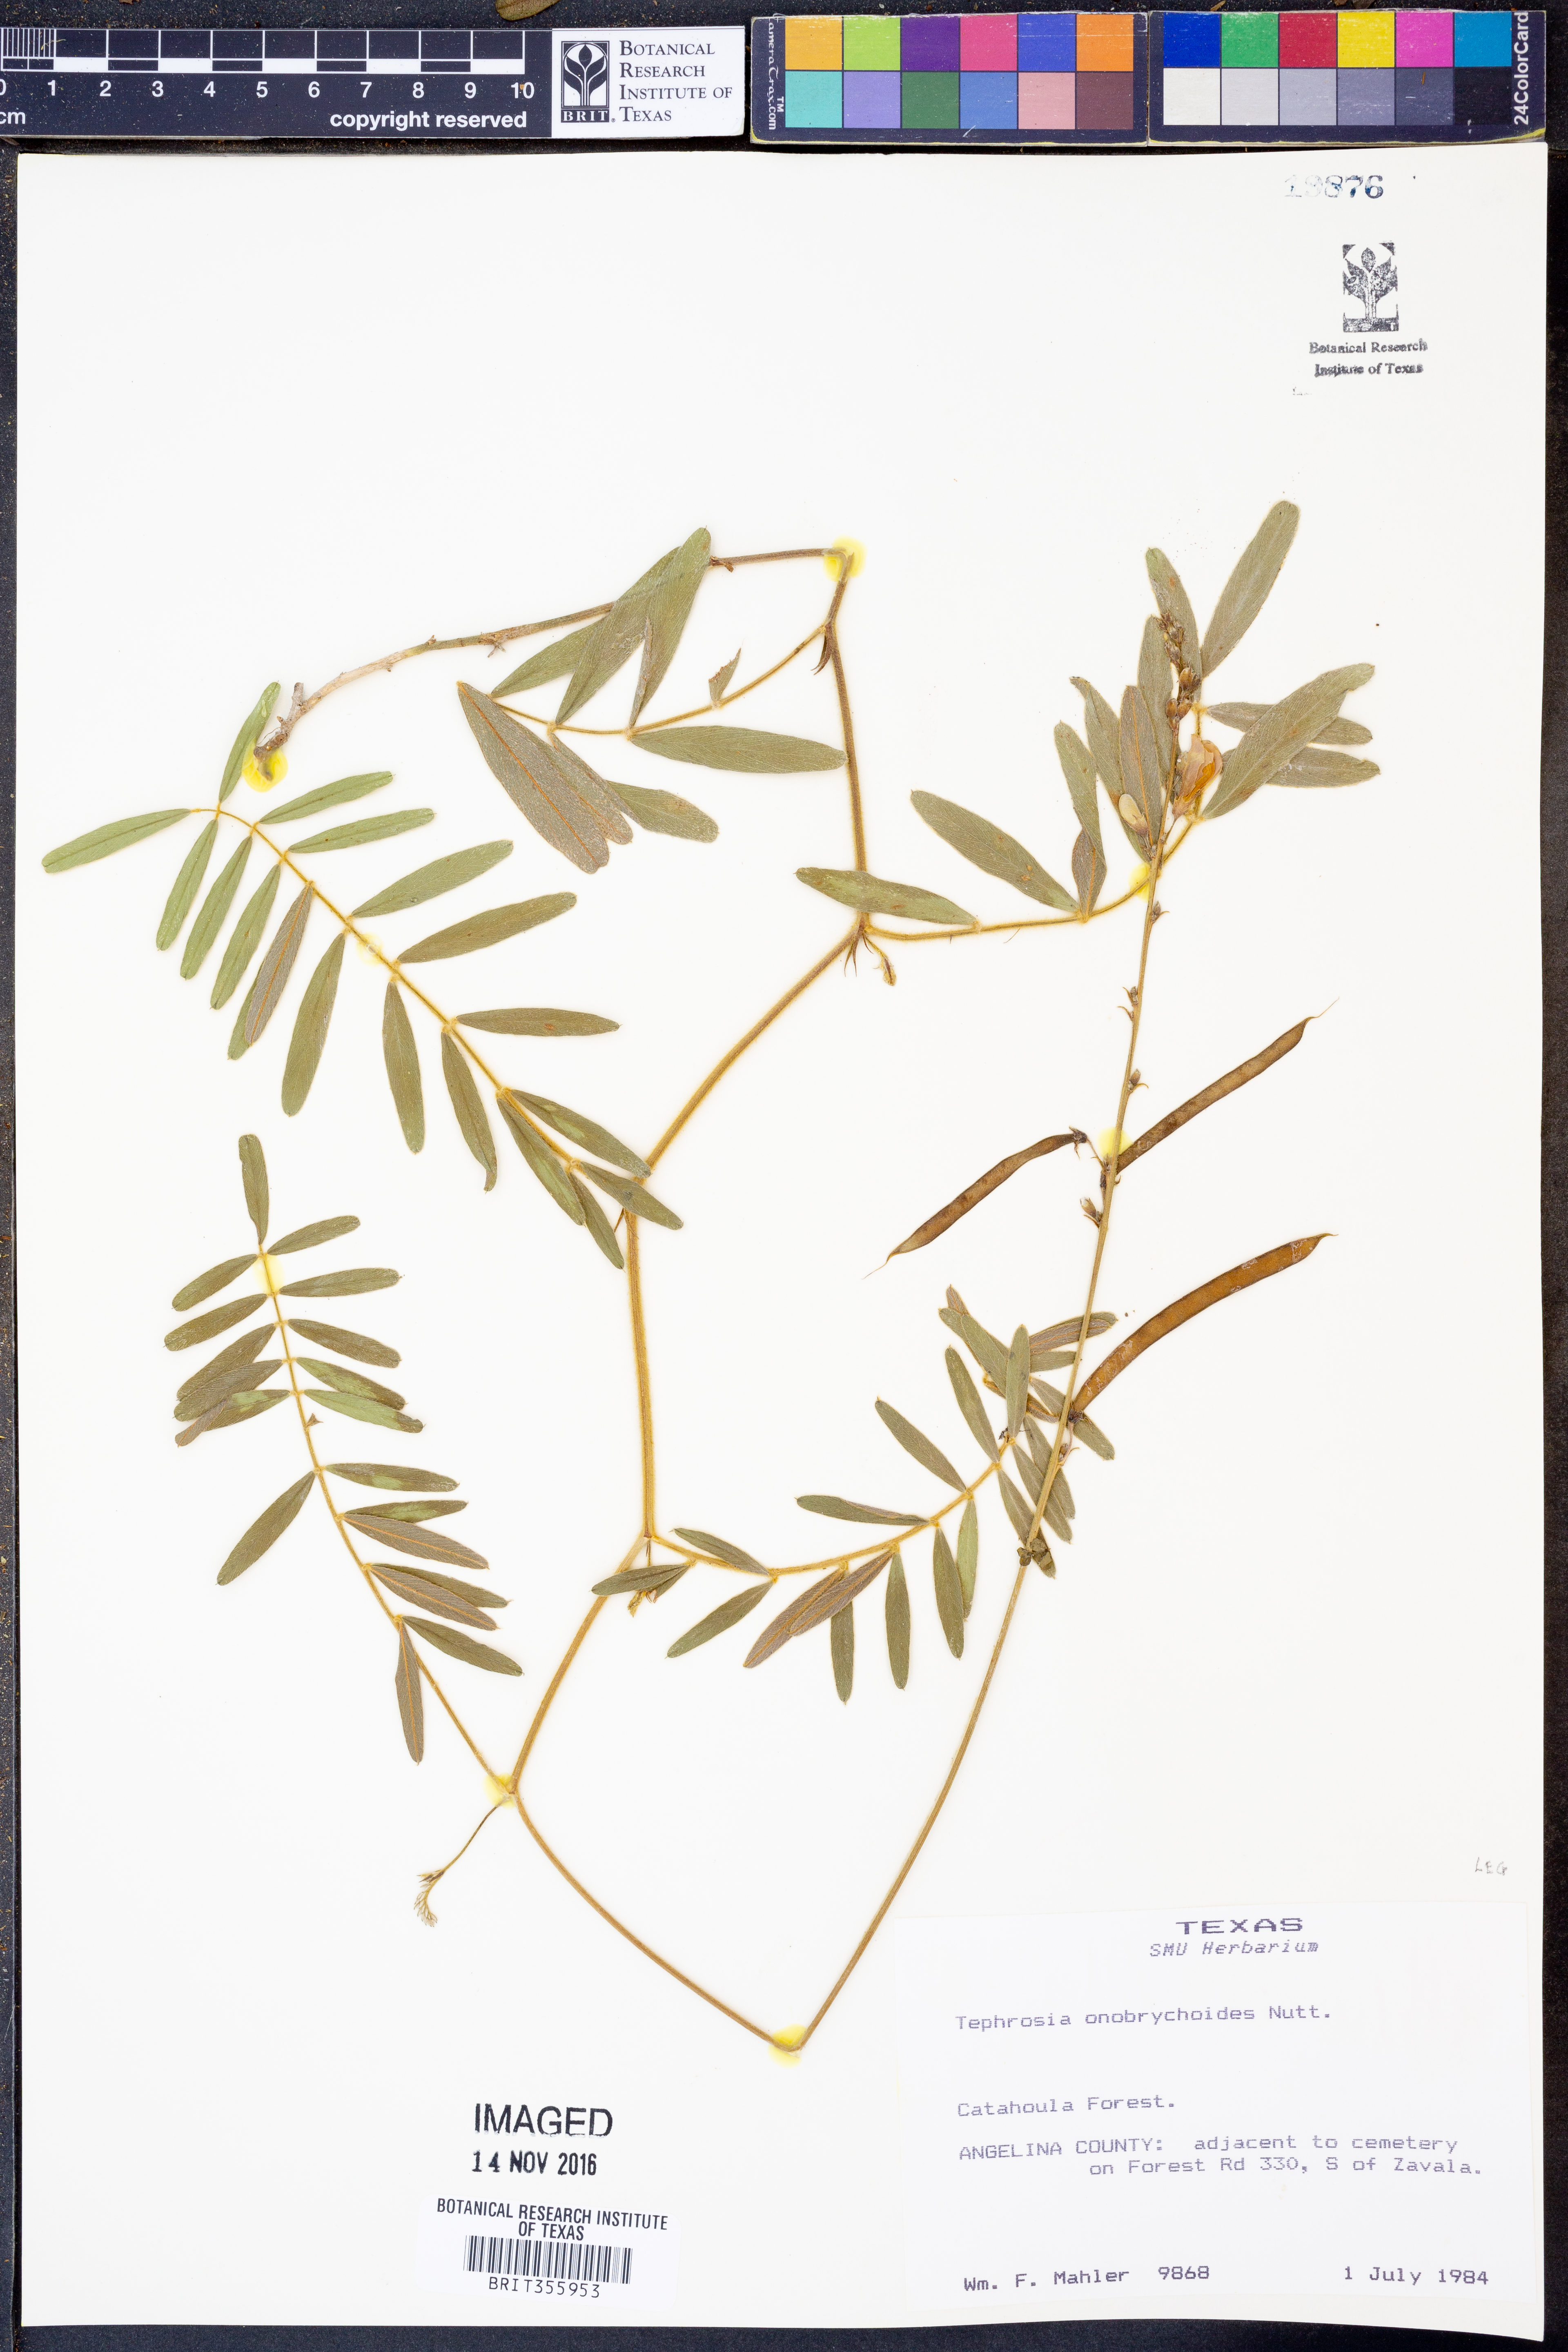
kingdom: Plantae
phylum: Tracheophyta
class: Magnoliopsida
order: Fabales
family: Fabaceae
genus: Tephrosia
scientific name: Tephrosia onobrychoides
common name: Multi-bloom hoary-pea
